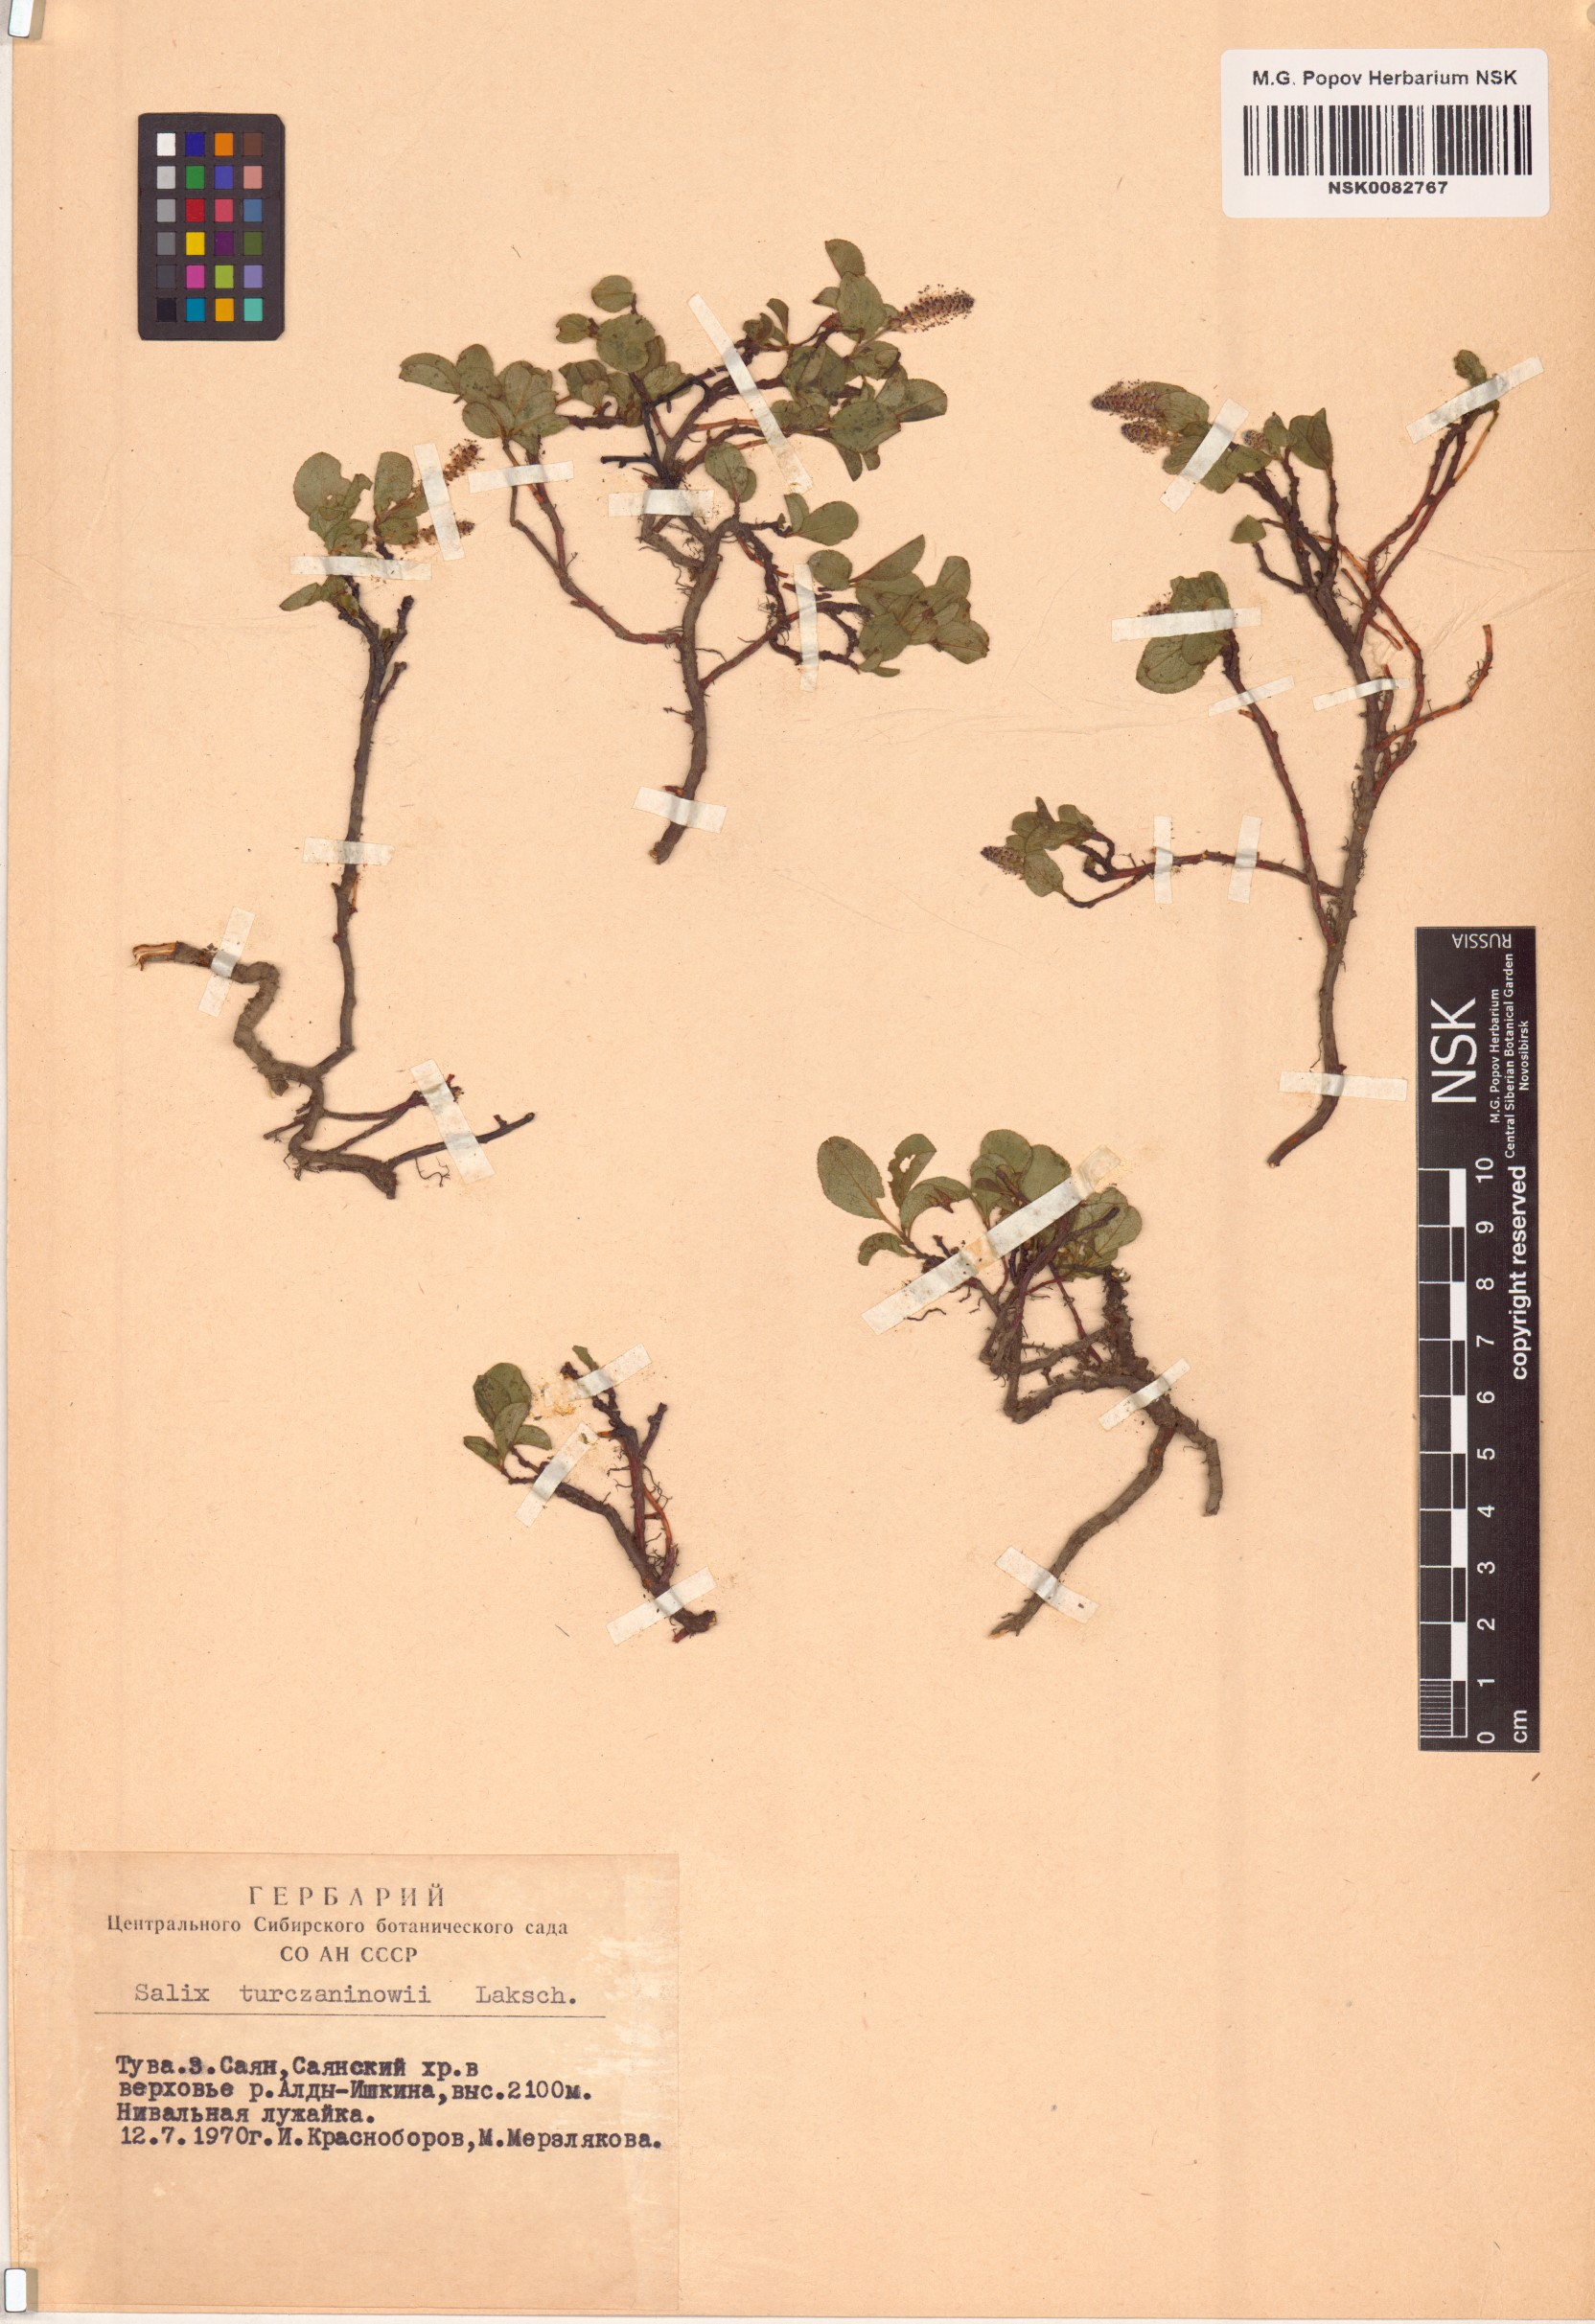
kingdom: Plantae
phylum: Tracheophyta
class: Magnoliopsida
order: Malpighiales
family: Salicaceae
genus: Salix
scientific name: Salix turczaninowii
